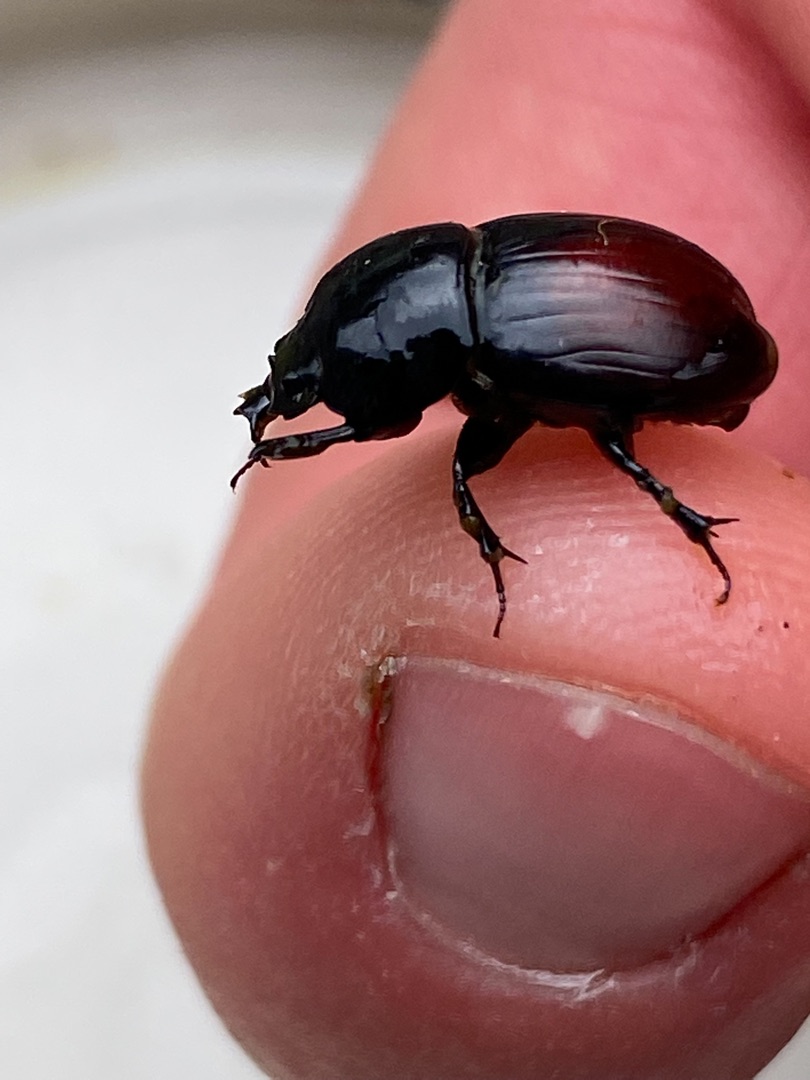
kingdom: Animalia
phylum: Arthropoda
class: Insecta
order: Coleoptera
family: Scarabaeidae
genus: Teuchestes
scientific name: Teuchestes fossor
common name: Stor møgbille
